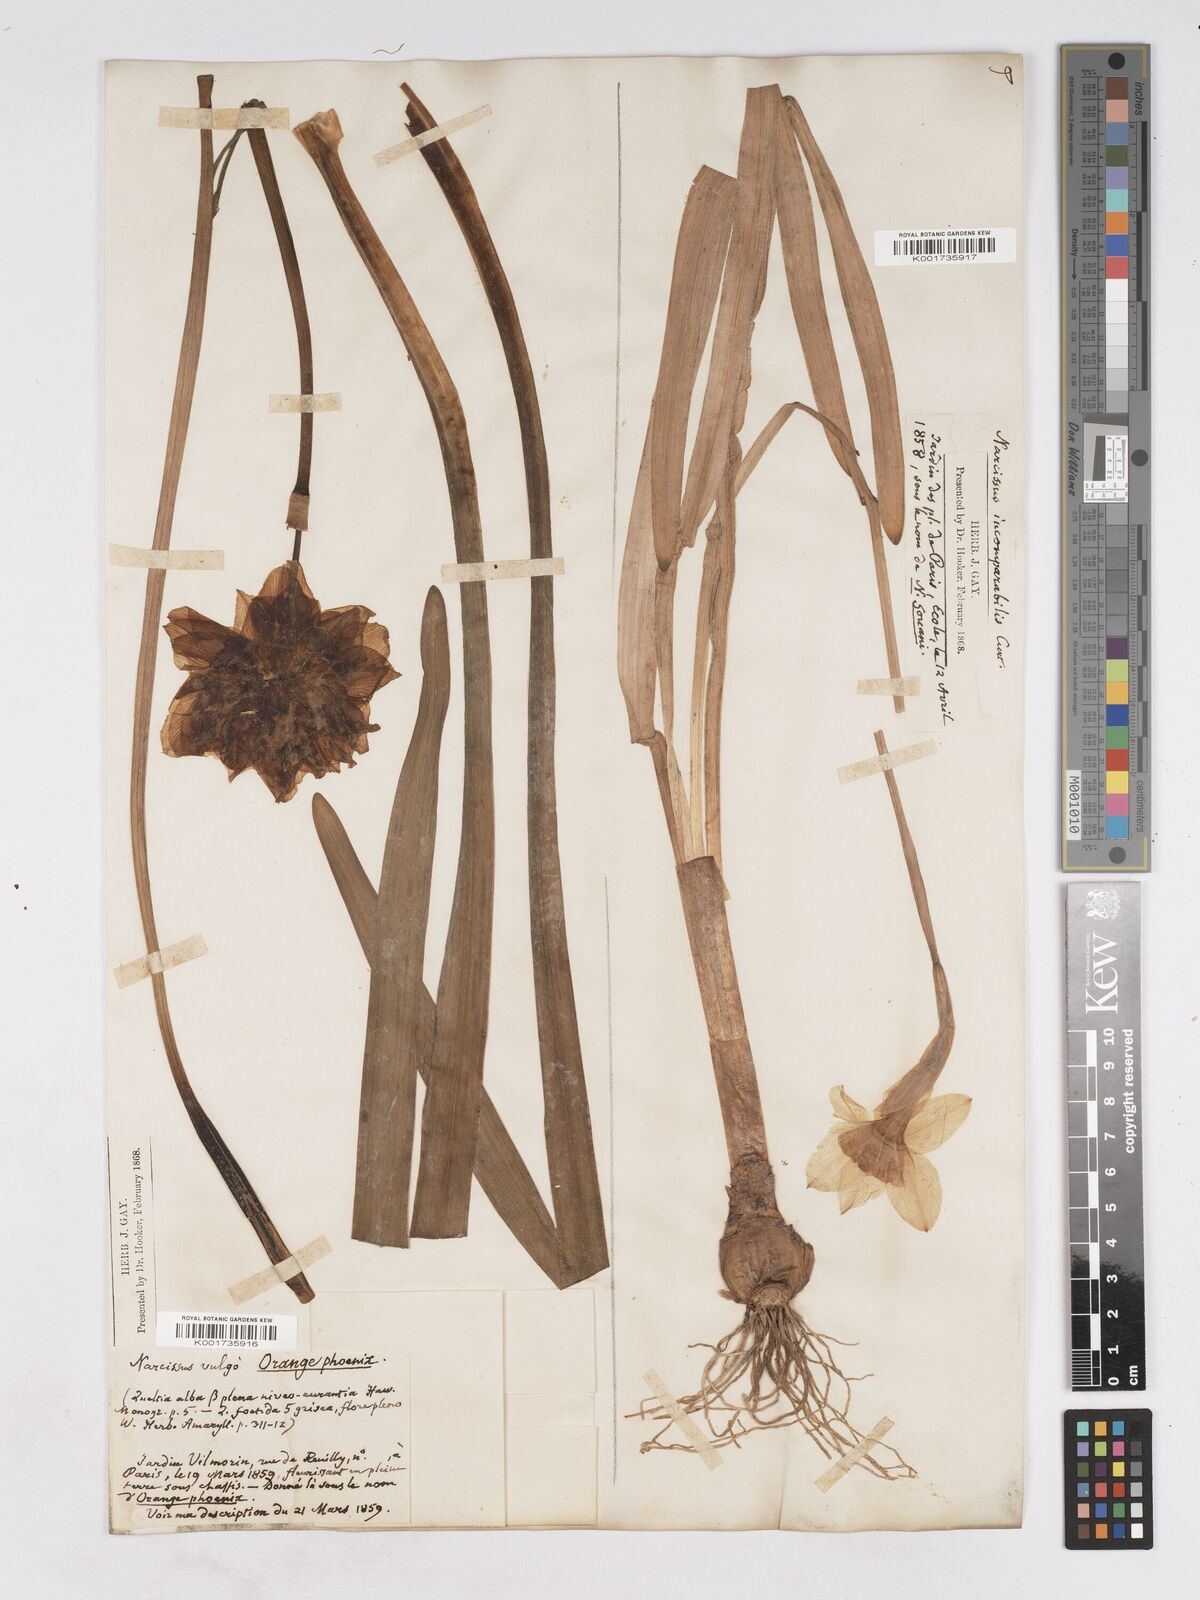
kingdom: Plantae
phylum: Tracheophyta
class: Liliopsida
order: Asparagales
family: Amaryllidaceae
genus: Narcissus
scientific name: Narcissus incomparabilis
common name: Nonesuch daffodil
